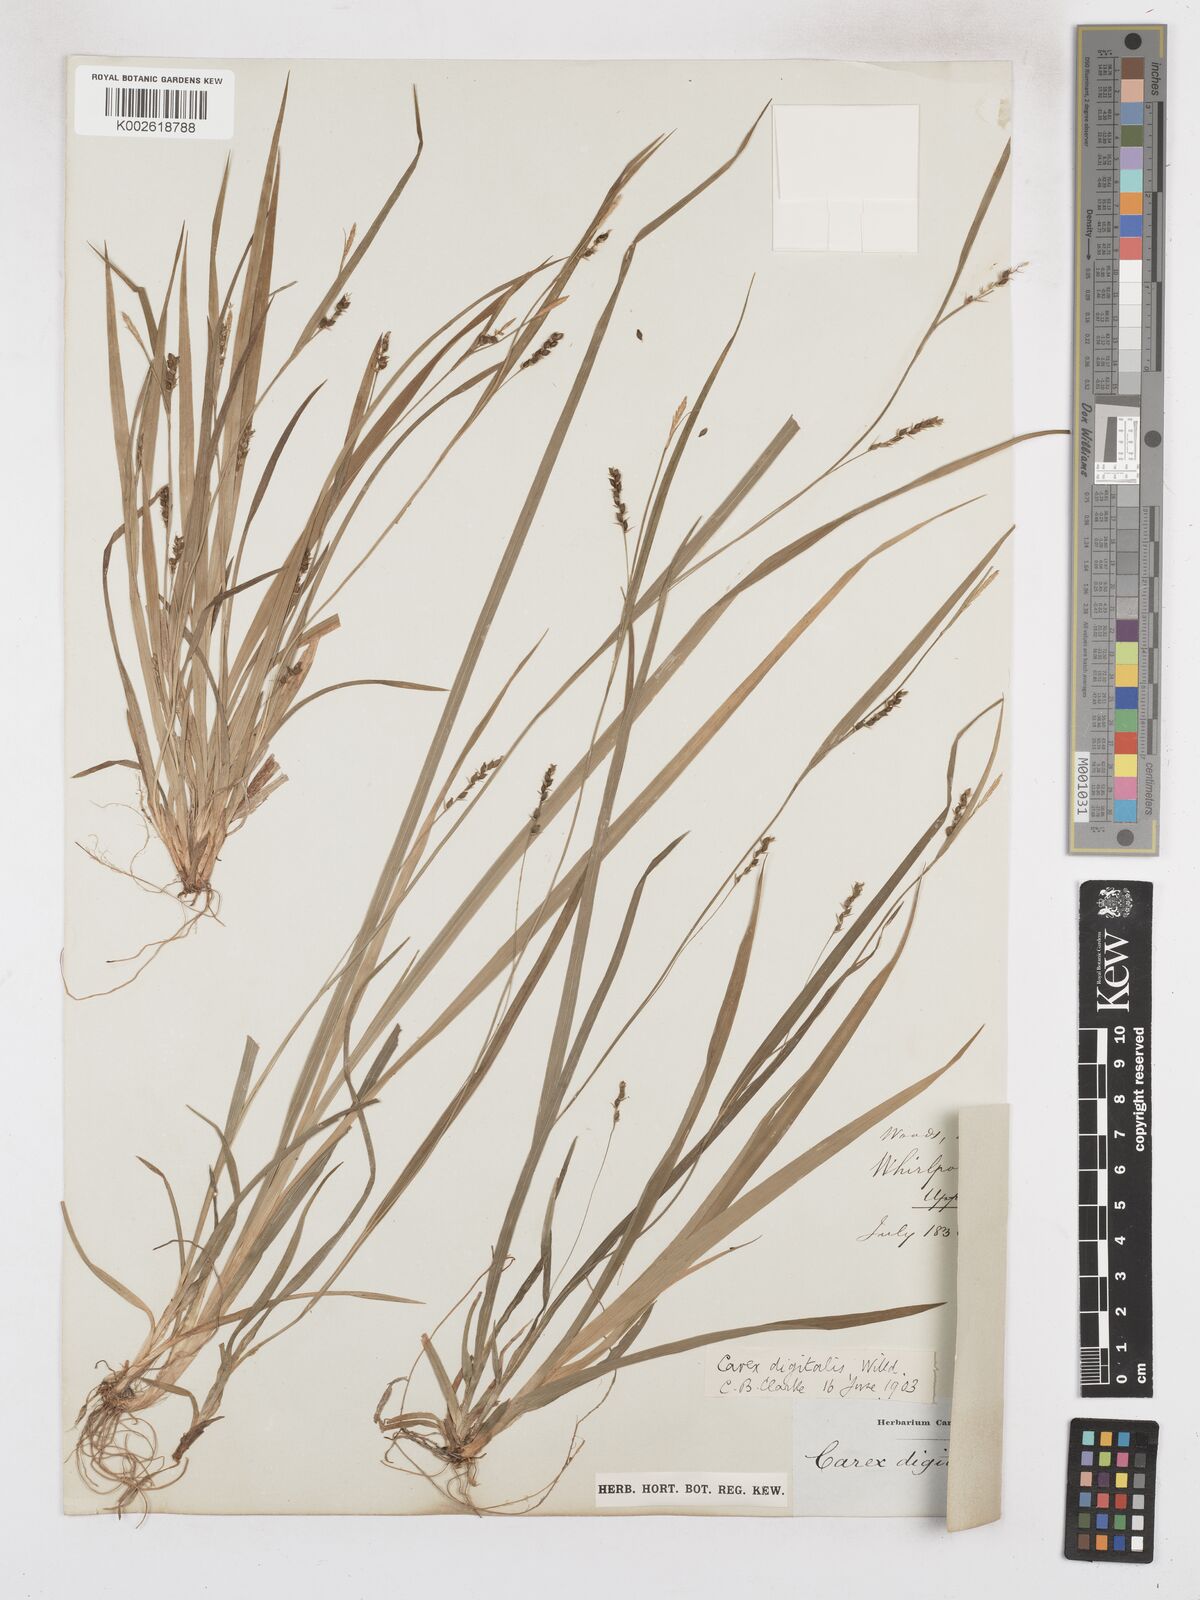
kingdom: Plantae
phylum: Tracheophyta
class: Liliopsida
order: Poales
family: Cyperaceae
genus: Carex
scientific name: Carex digitalis
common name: Slender wood sedge
